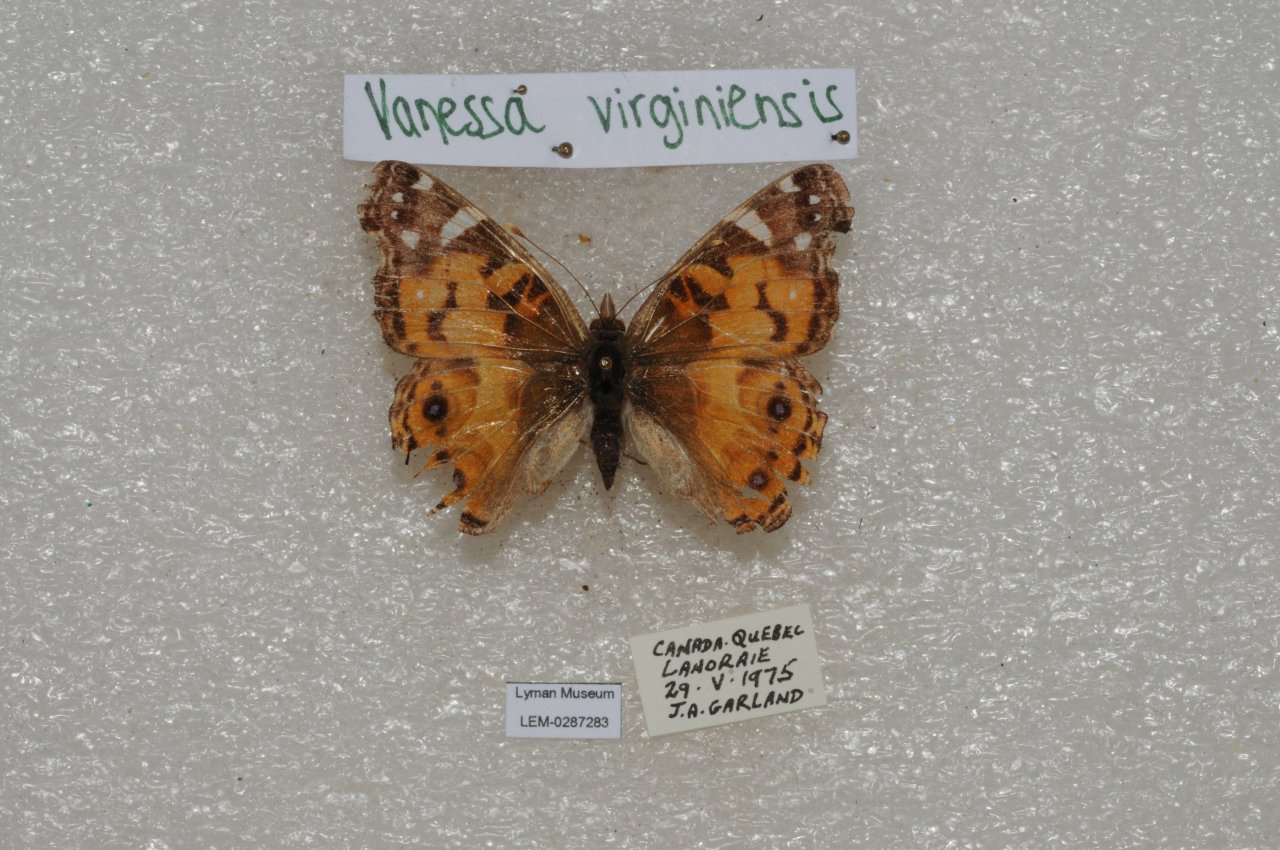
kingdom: Animalia
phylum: Arthropoda
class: Insecta
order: Lepidoptera
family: Nymphalidae
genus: Vanessa
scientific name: Vanessa virginiensis
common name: American Lady
